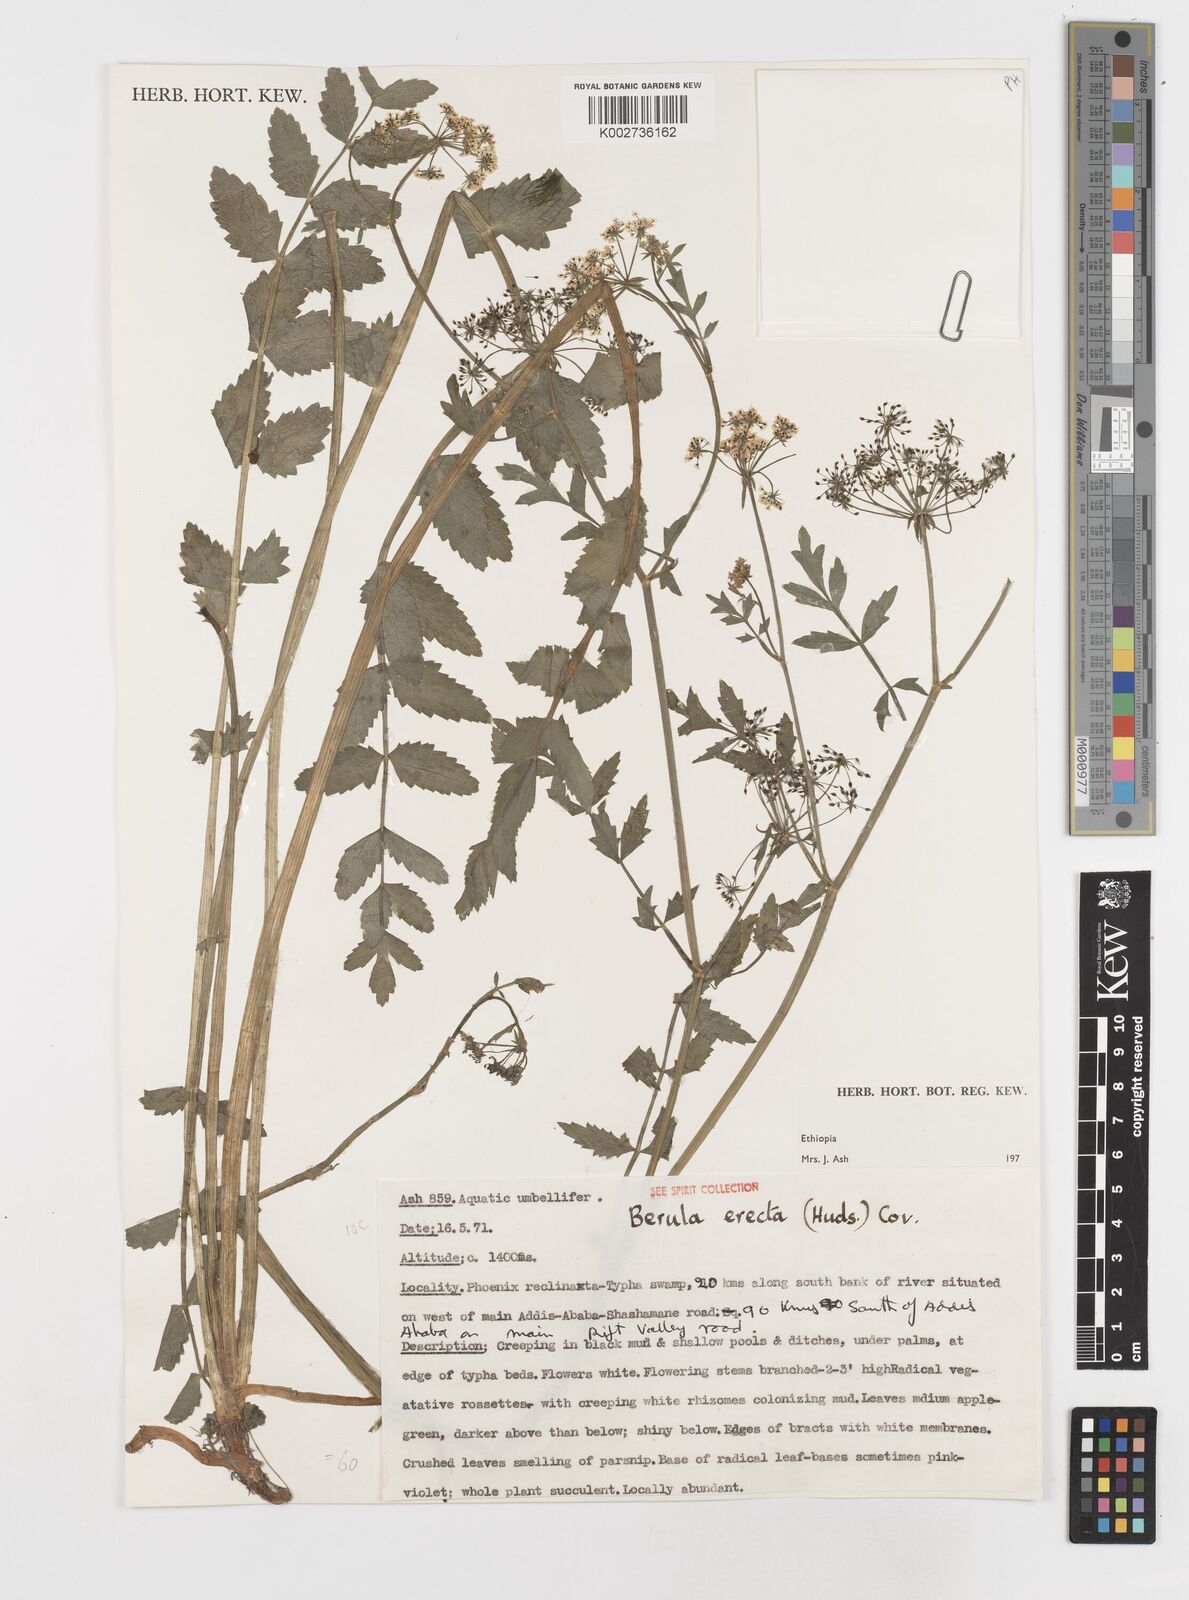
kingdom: Plantae
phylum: Tracheophyta
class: Magnoliopsida
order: Apiales
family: Apiaceae
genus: Berula
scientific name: Berula erecta
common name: Lesser water-parsnip
